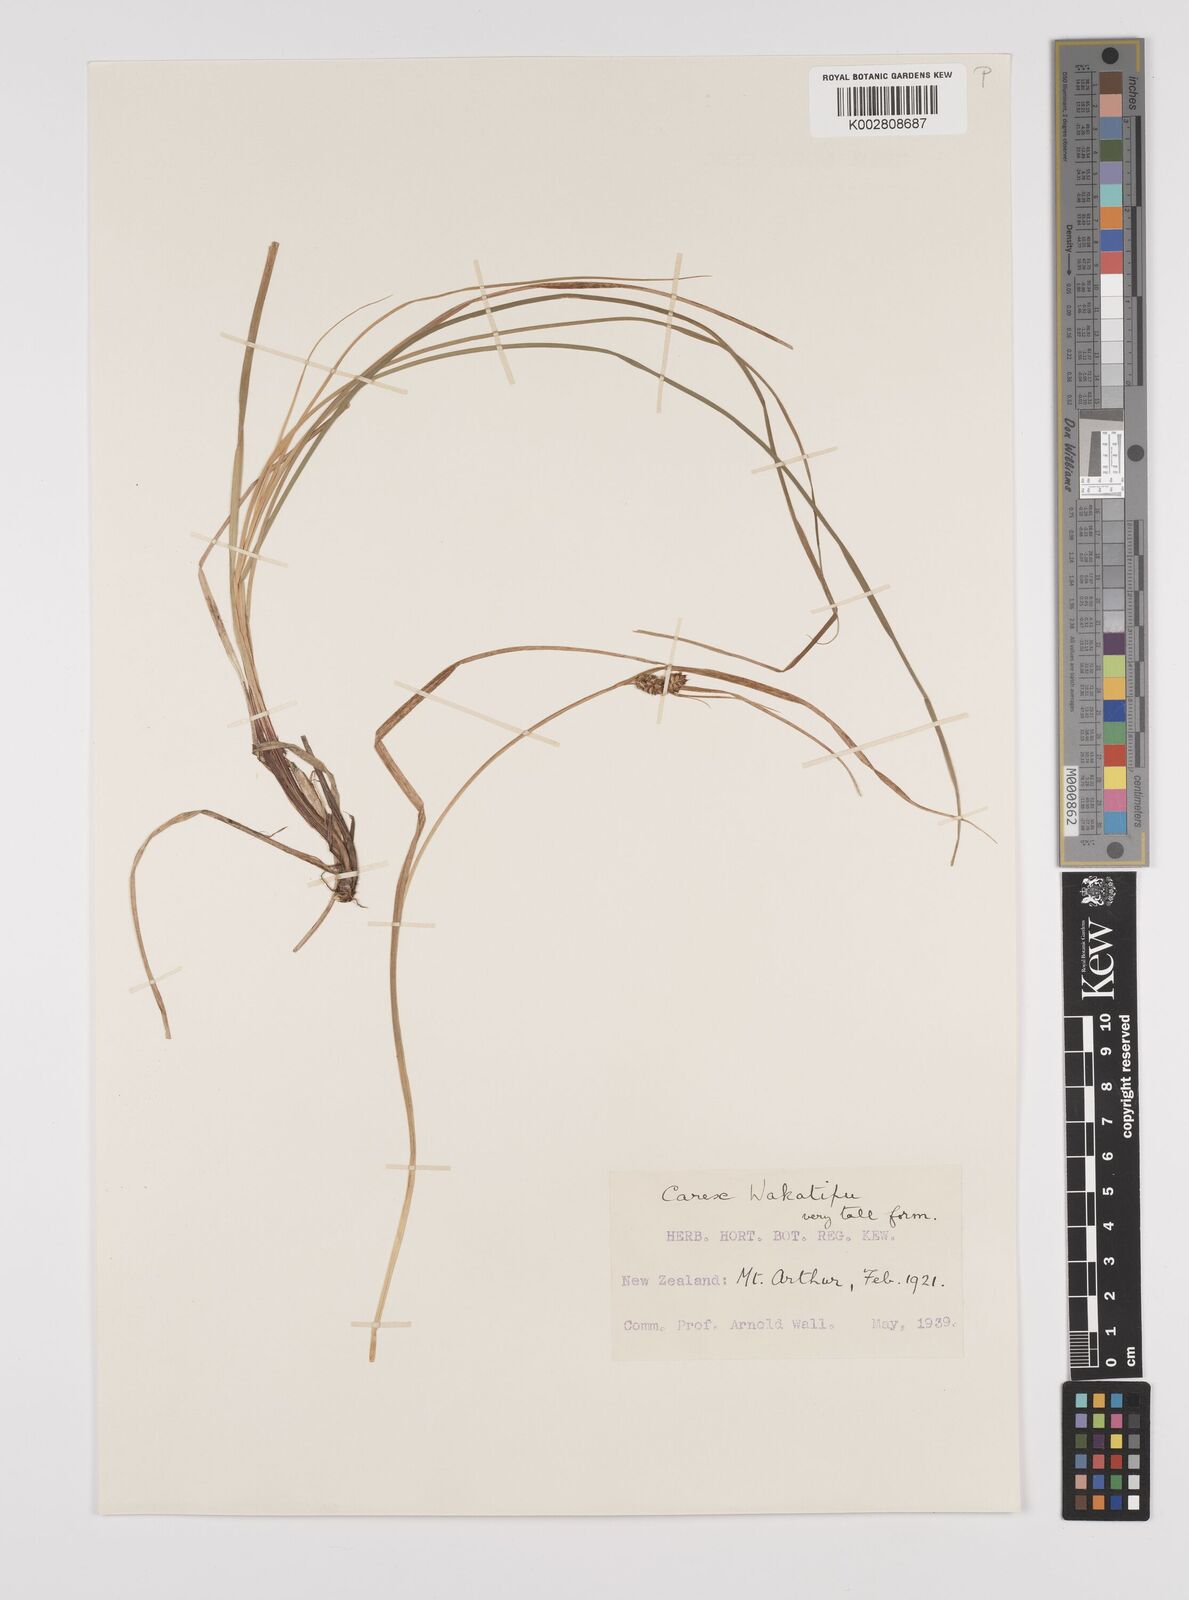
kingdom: Plantae
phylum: Tracheophyta
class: Liliopsida
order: Poales
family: Cyperaceae
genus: Carex
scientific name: Carex wakatipu
